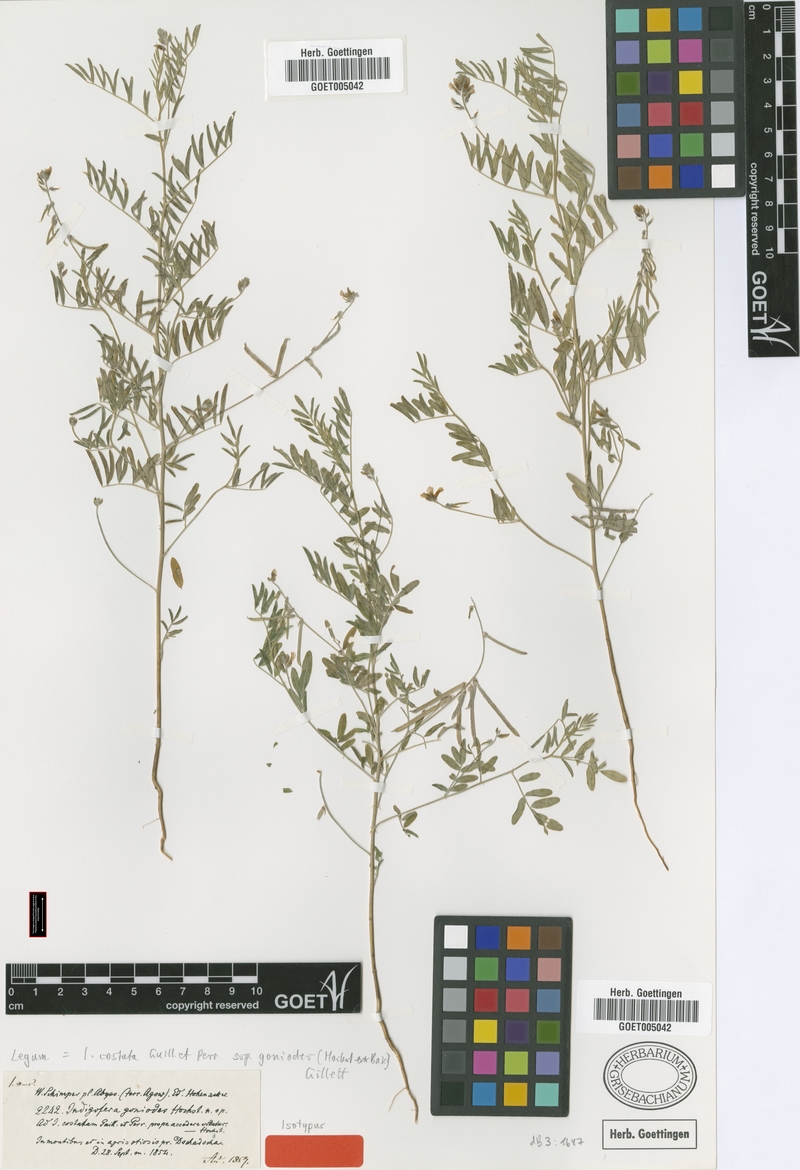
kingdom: Plantae
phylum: Tracheophyta
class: Magnoliopsida
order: Fabales
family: Fabaceae
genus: Indigastrum
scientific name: Indigastrum costatum
